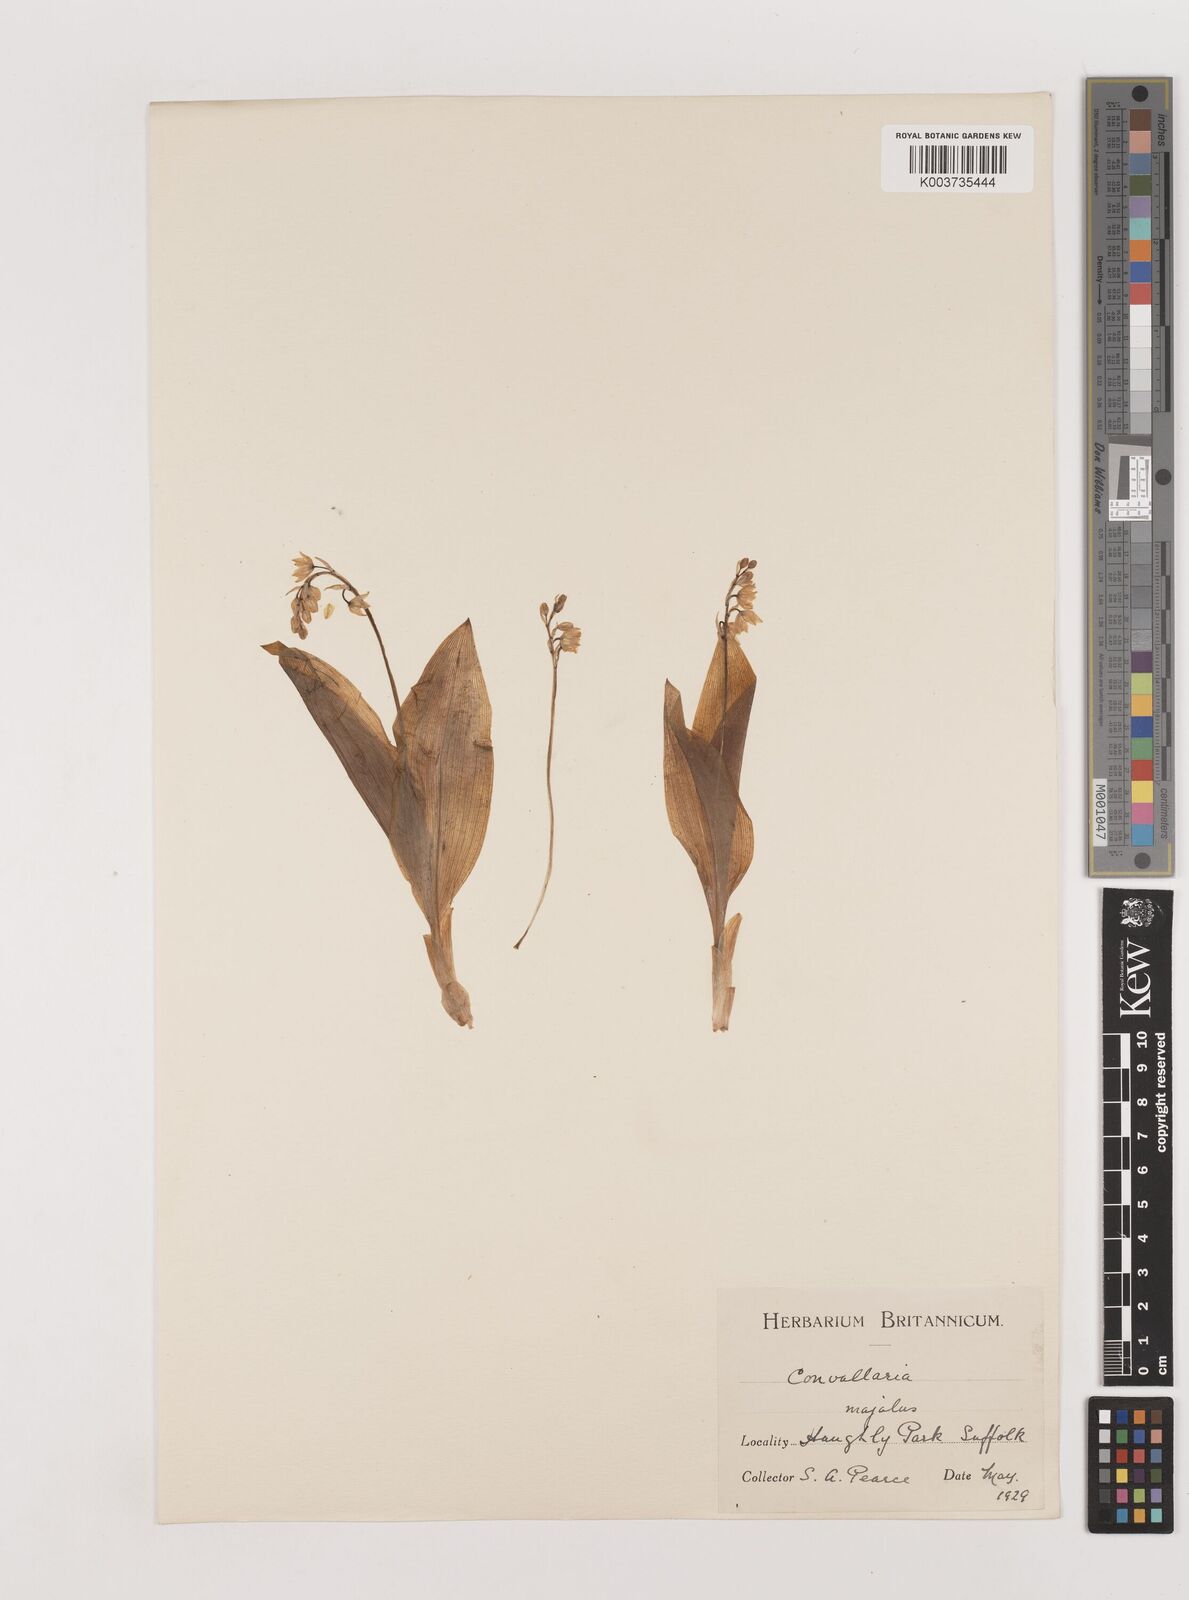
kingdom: Plantae
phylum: Tracheophyta
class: Liliopsida
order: Asparagales
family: Asparagaceae
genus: Convallaria
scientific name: Convallaria majalis
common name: Lily-of-the-valley
